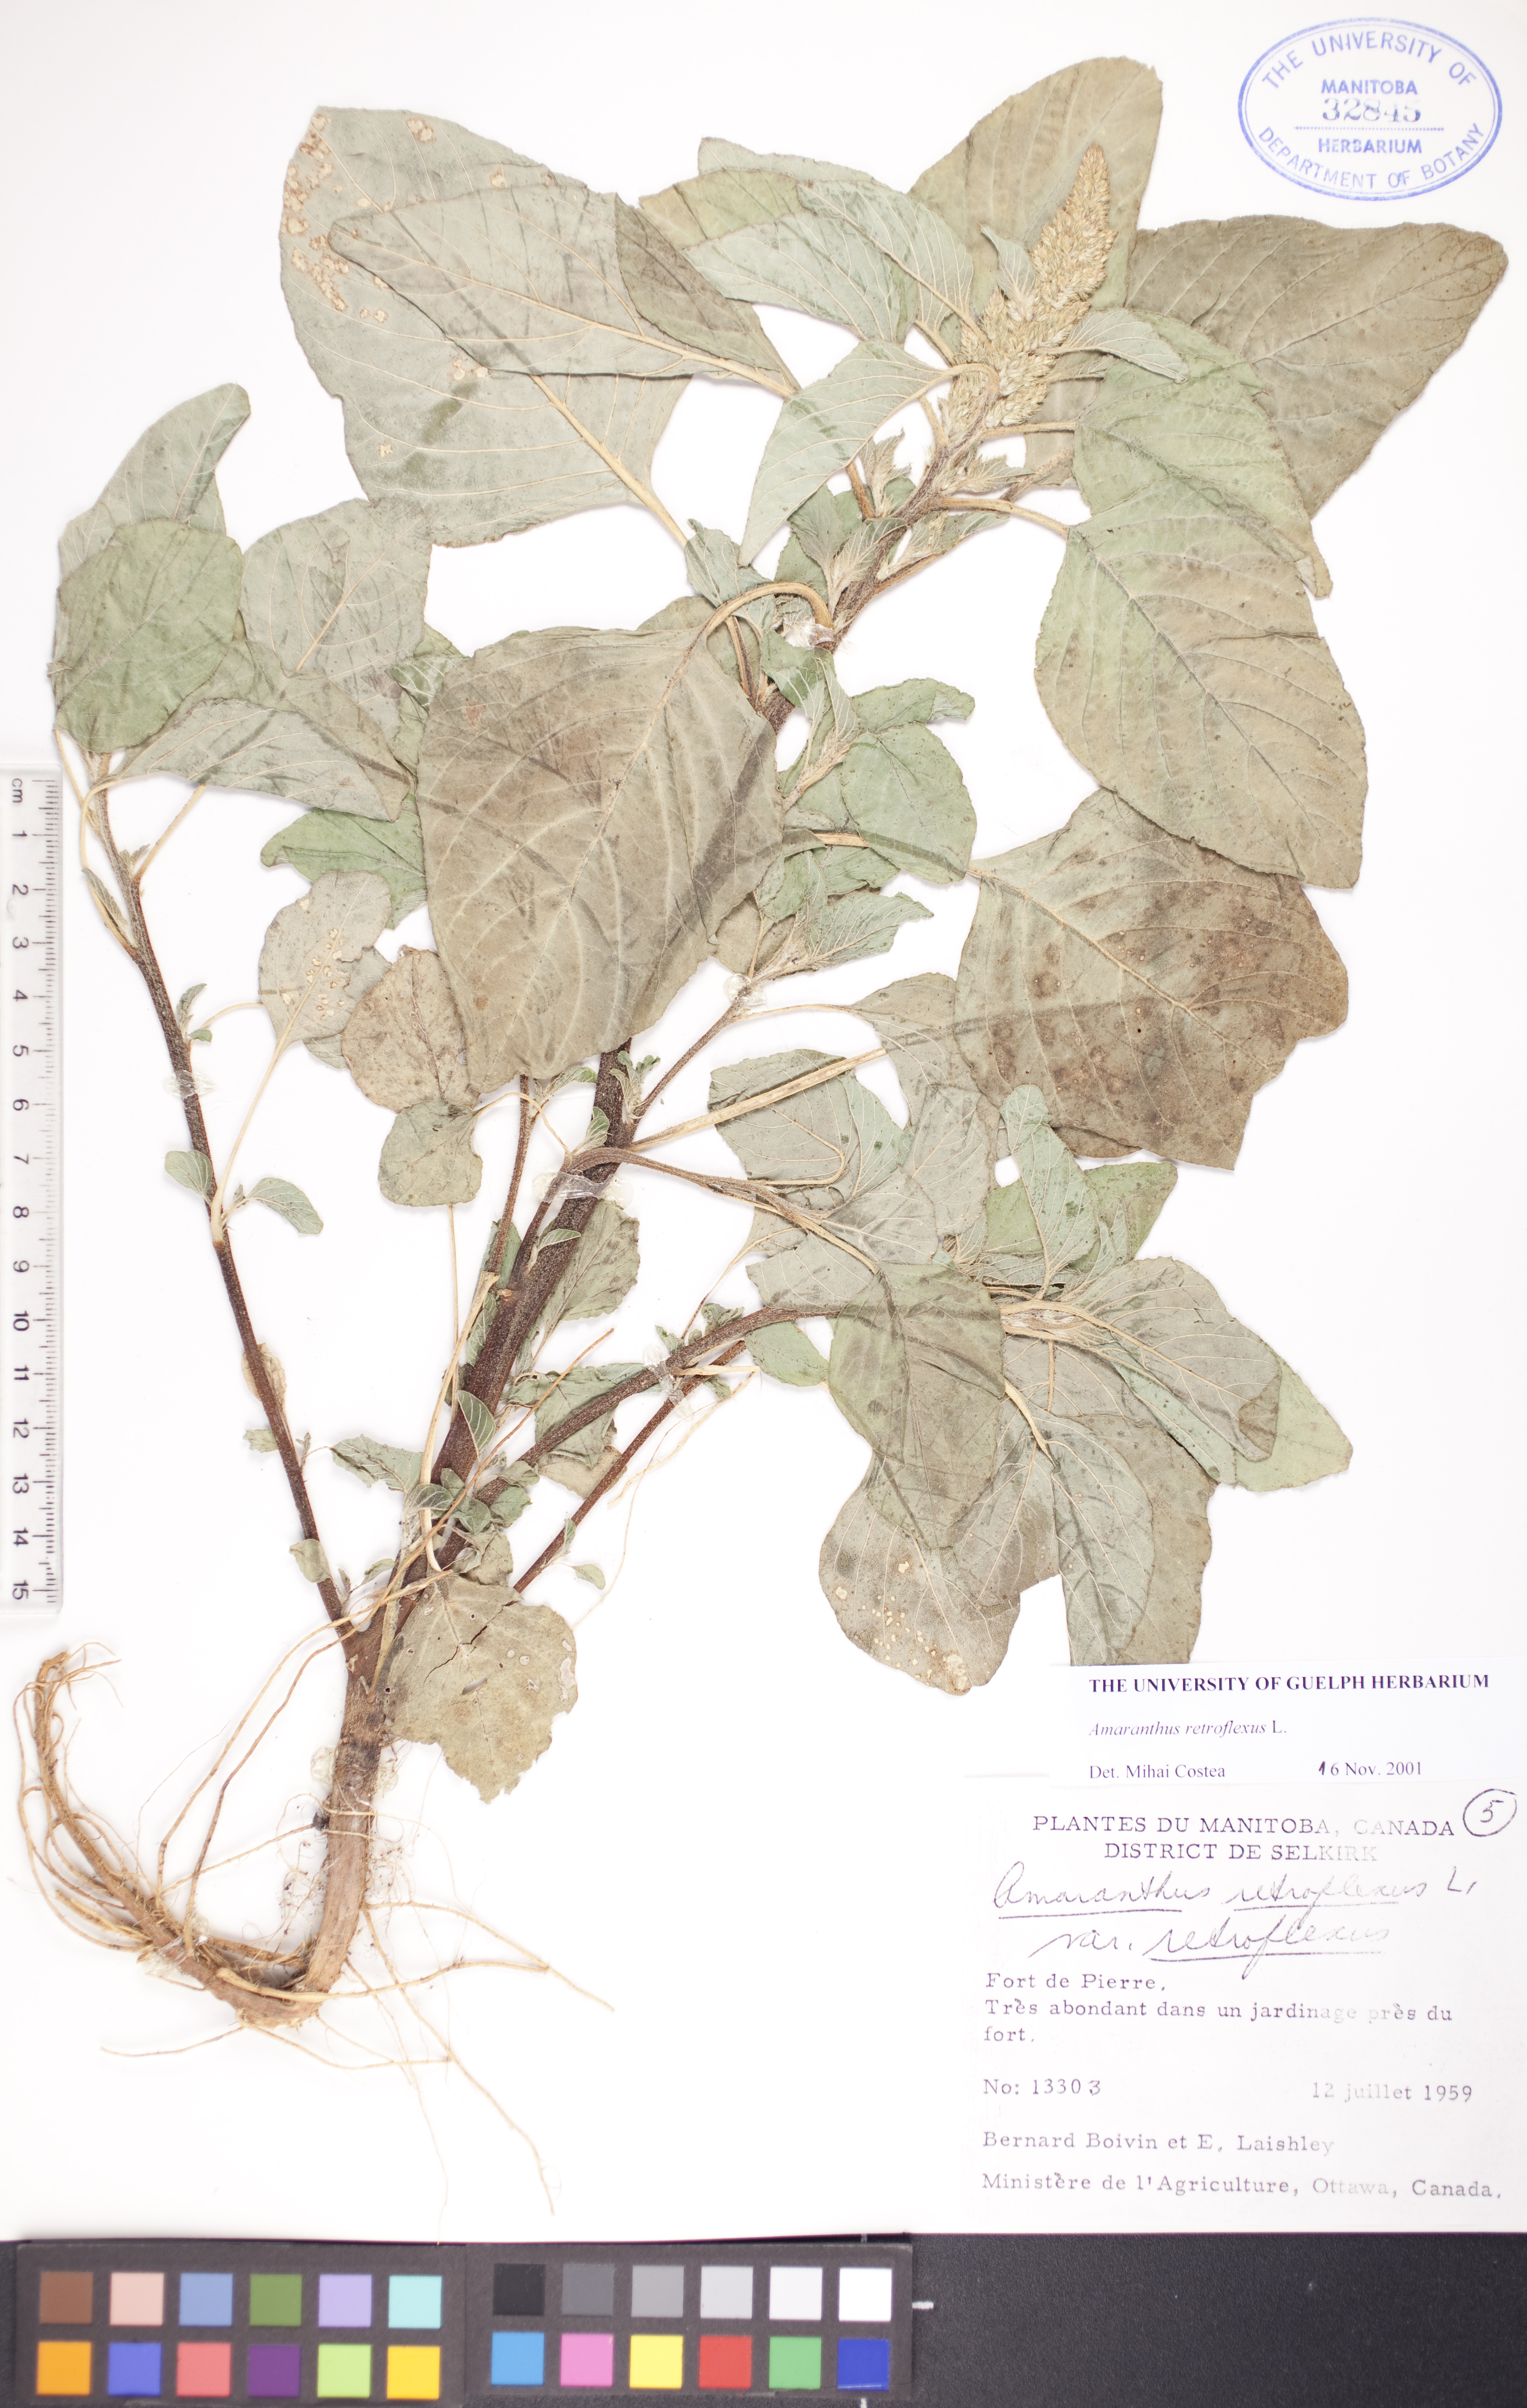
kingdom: Plantae
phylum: Tracheophyta
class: Magnoliopsida
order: Caryophyllales
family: Amaranthaceae
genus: Amaranthus
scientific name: Amaranthus retroflexus
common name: Redroot amaranth
